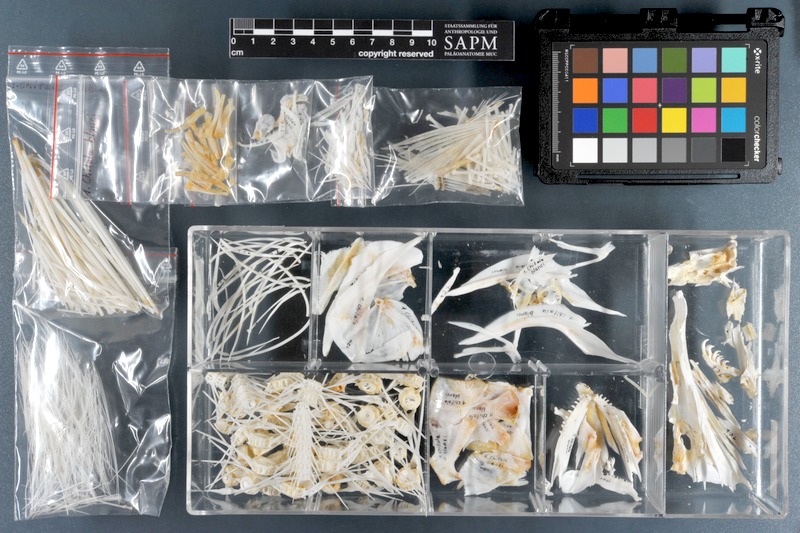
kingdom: Animalia
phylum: Chordata
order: Osteoglossiformes
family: Notopteridae
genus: Chitala
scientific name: Chitala blanci
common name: Indochina featherback
